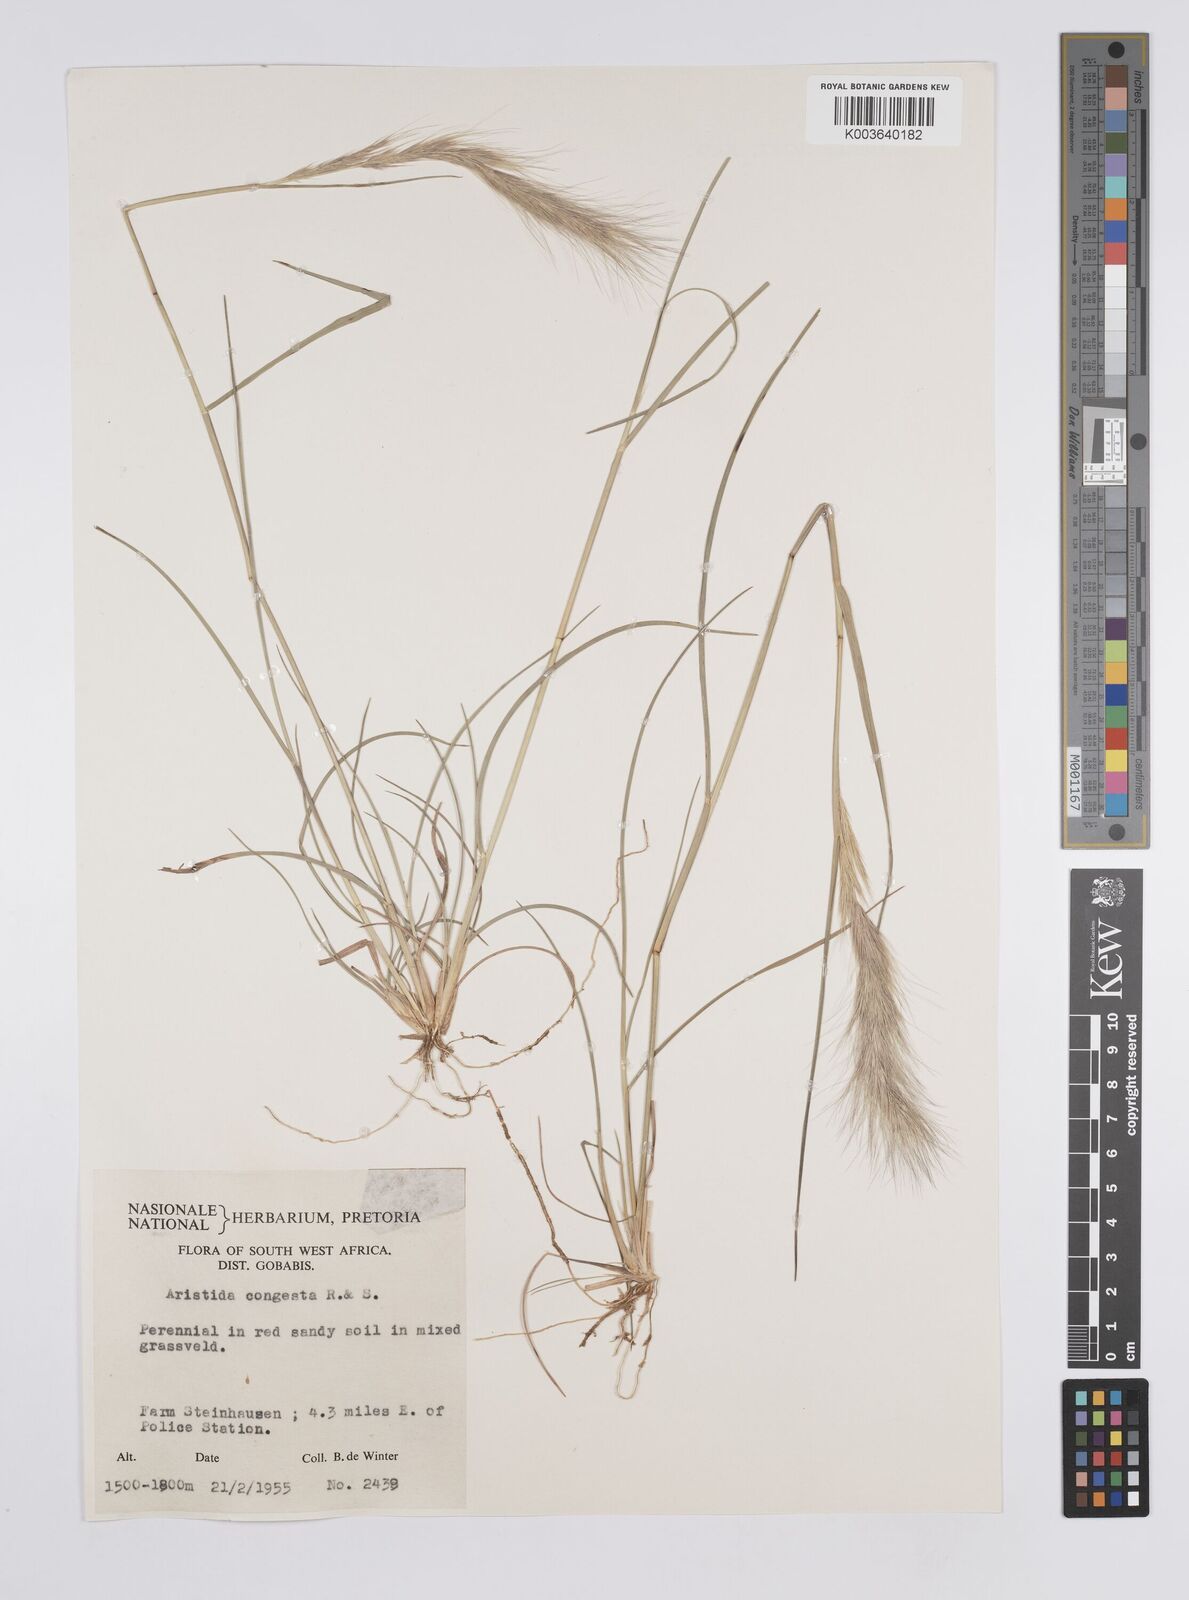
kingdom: Plantae
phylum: Tracheophyta
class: Liliopsida
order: Poales
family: Poaceae
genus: Aristida
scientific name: Aristida congesta
